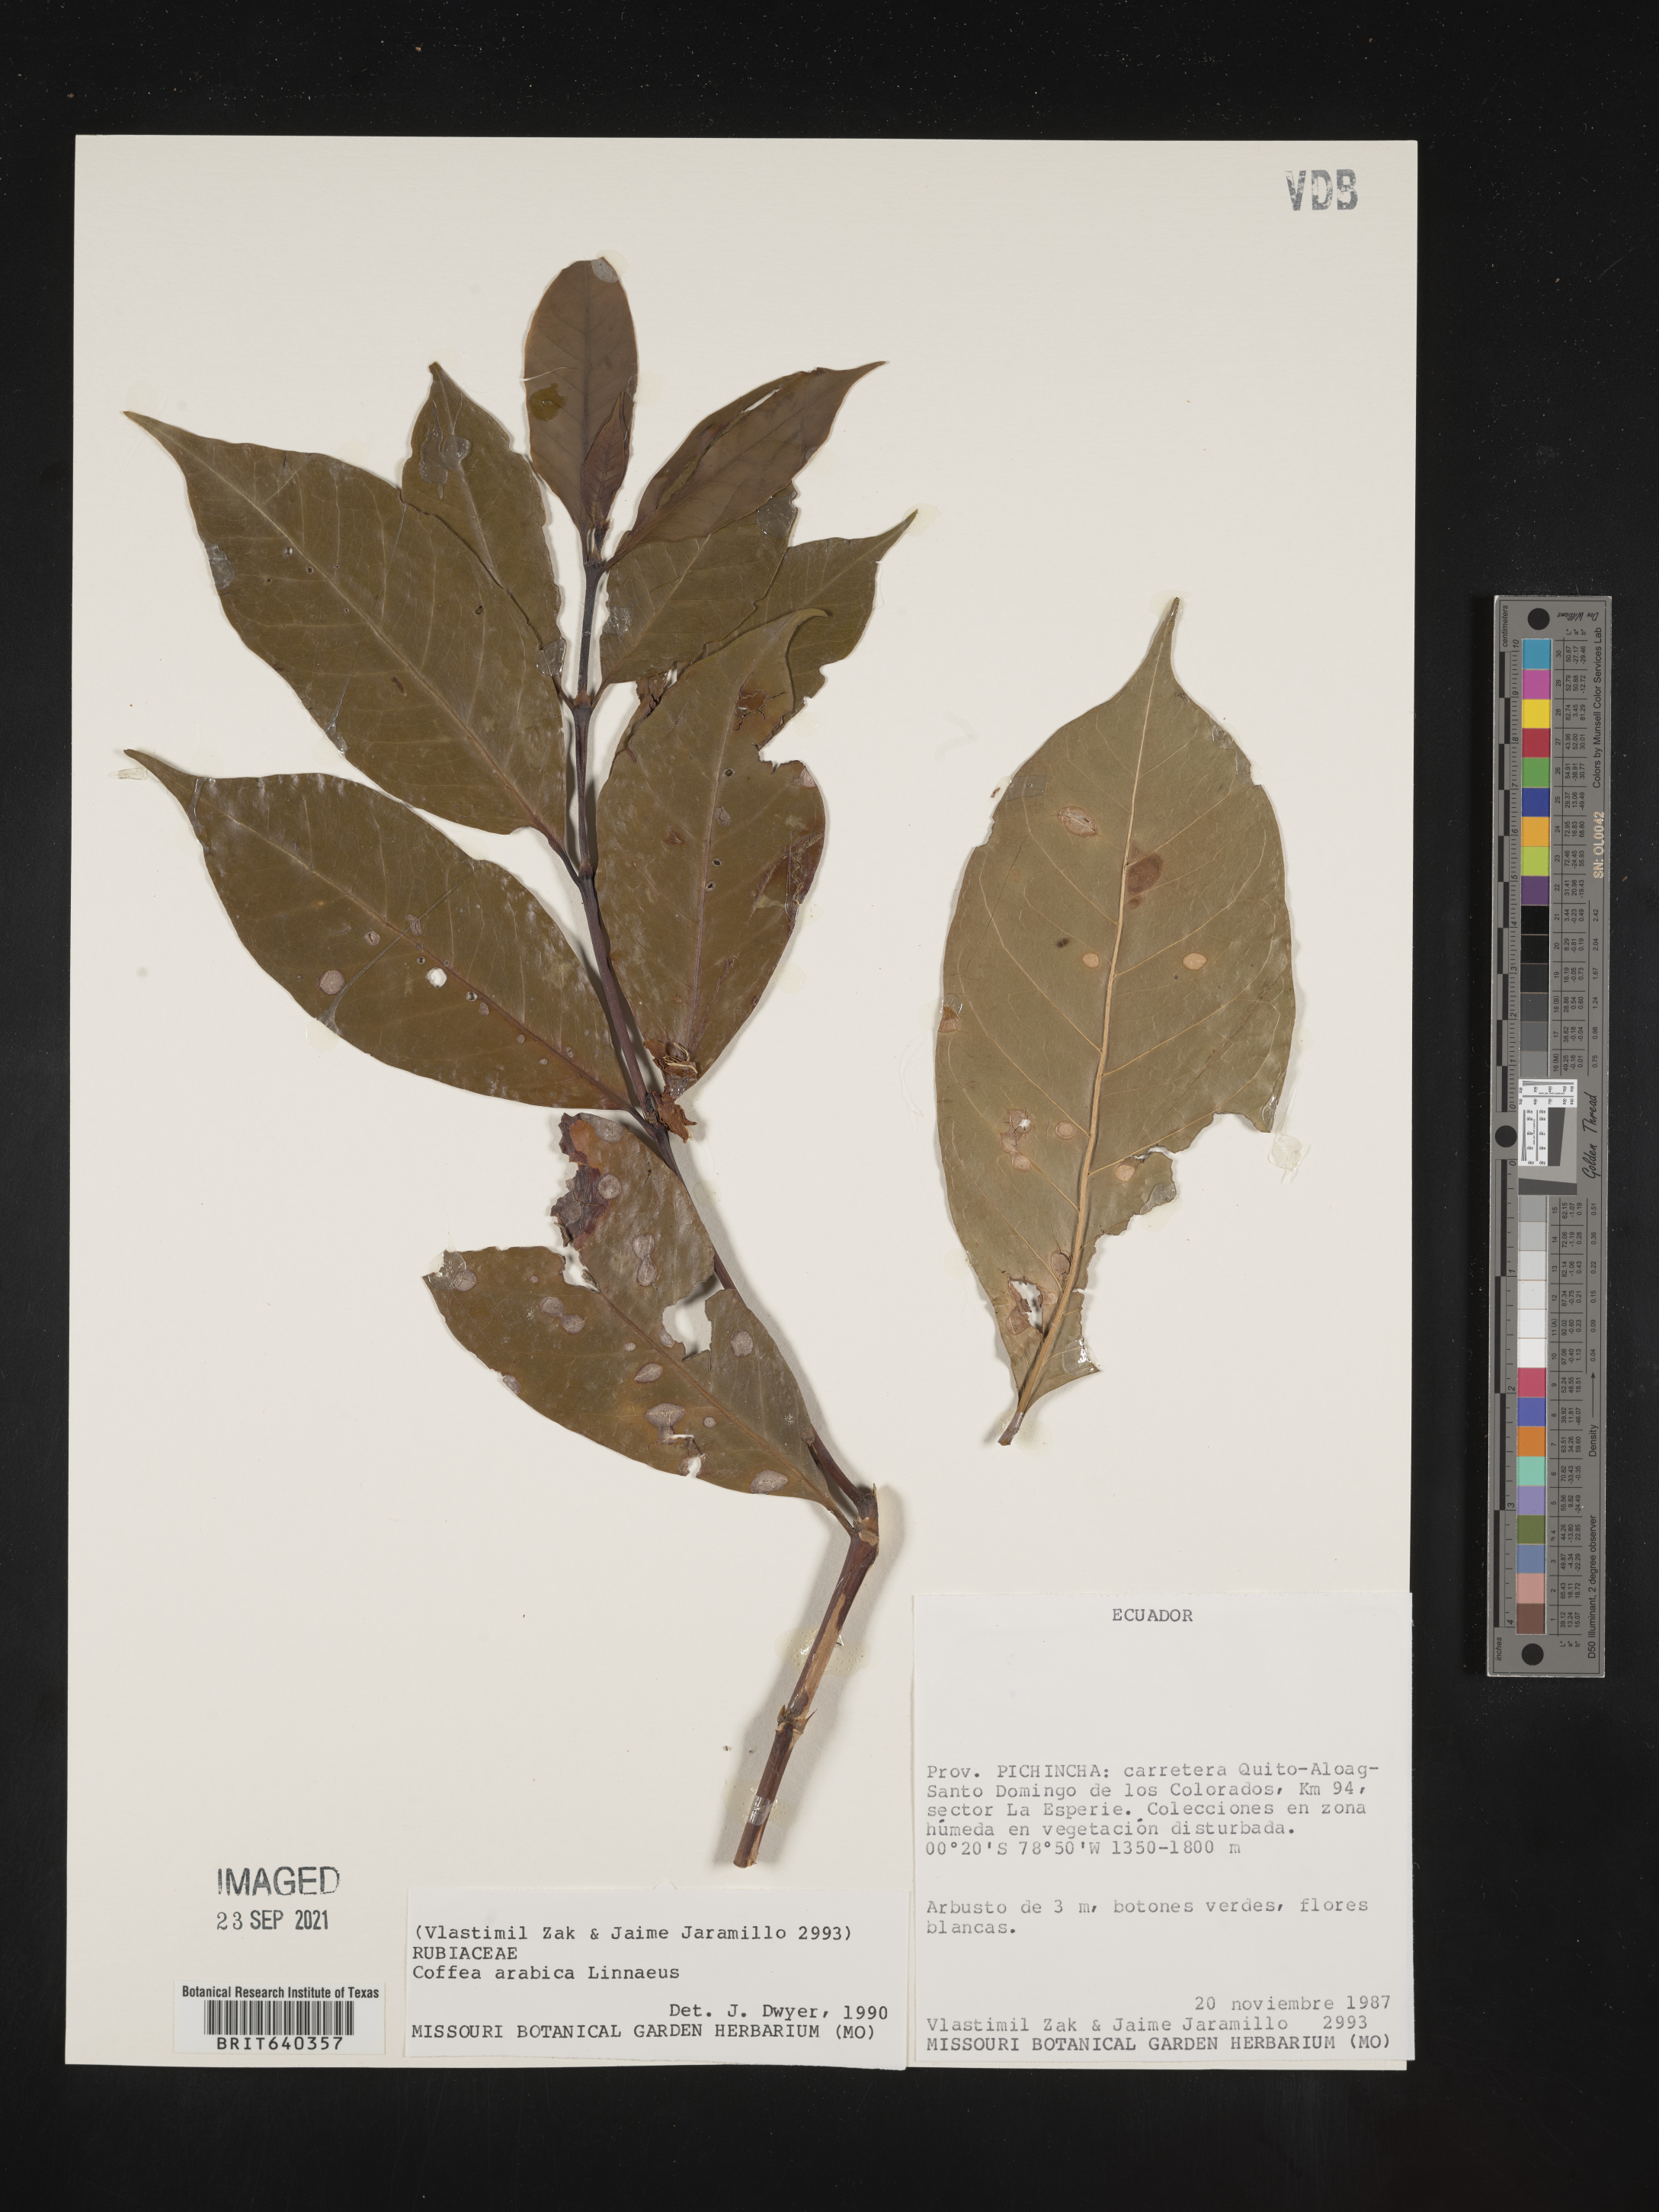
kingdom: Plantae
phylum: Tracheophyta
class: Magnoliopsida
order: Gentianales
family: Rubiaceae
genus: Coffea
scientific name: Coffea
